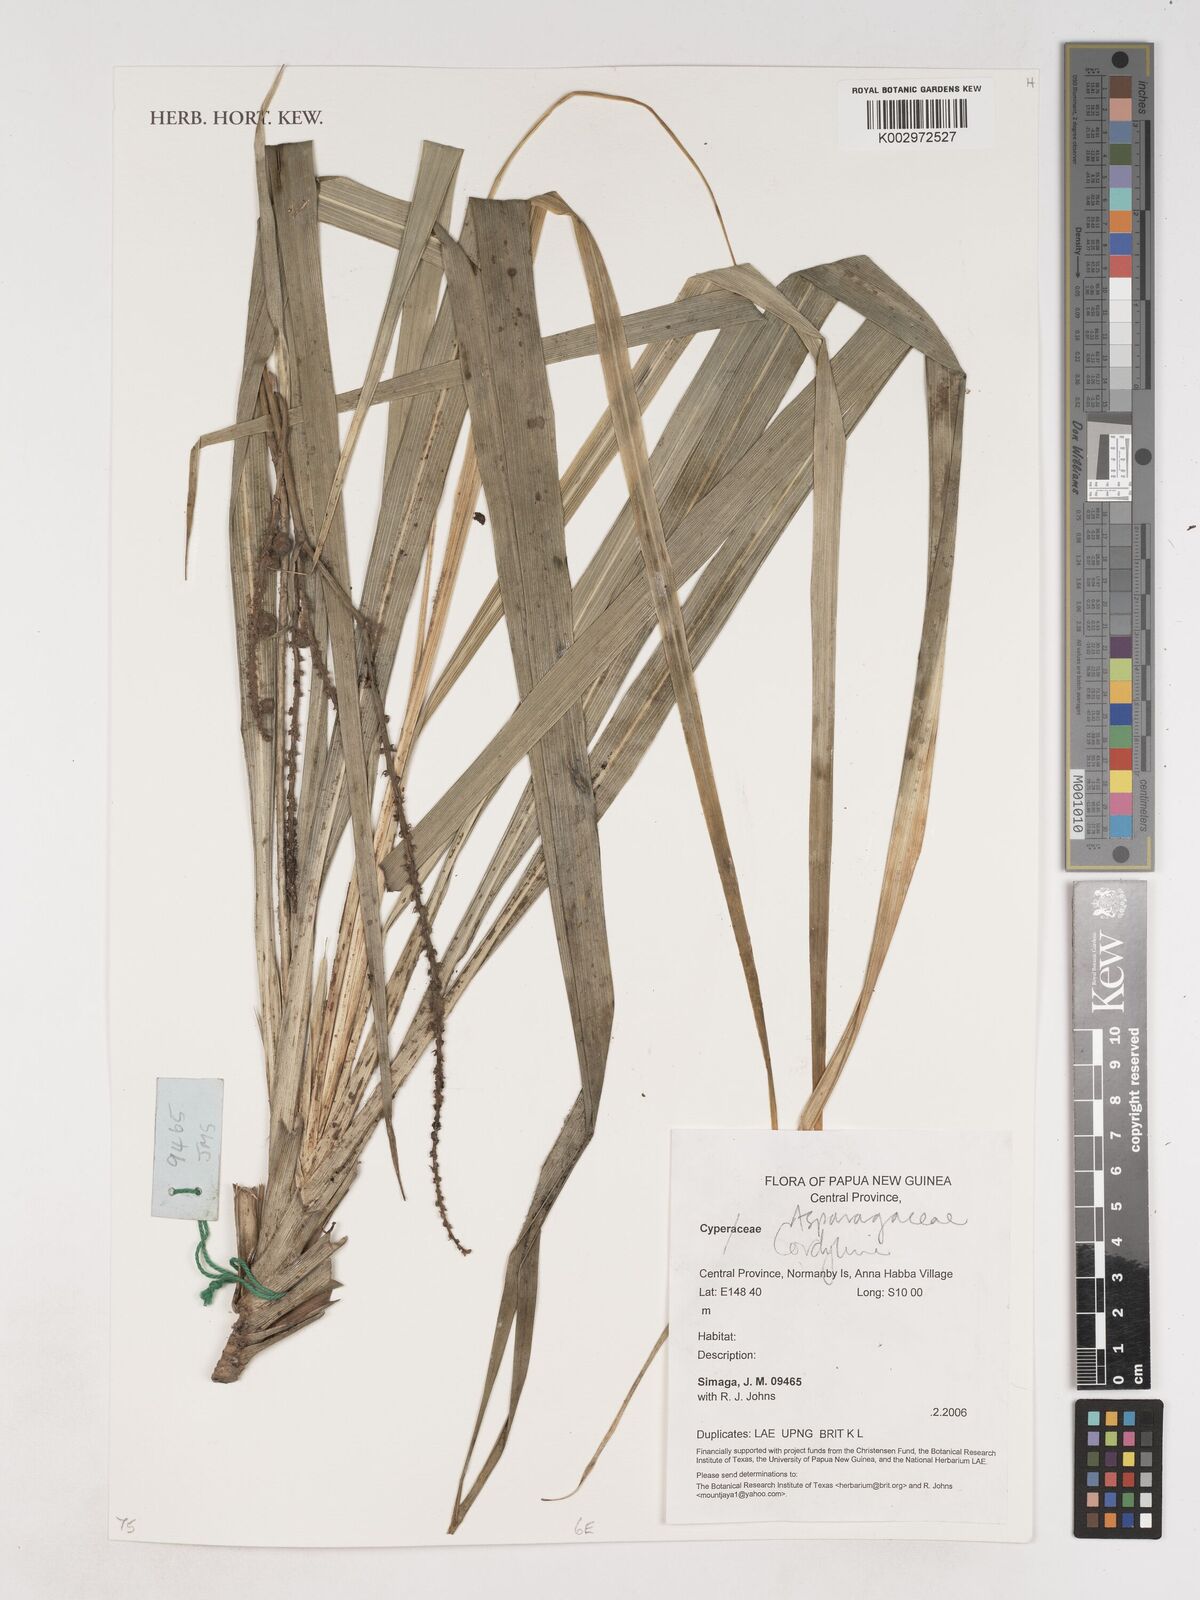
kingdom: Plantae
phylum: Tracheophyta
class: Liliopsida
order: Asparagales
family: Asparagaceae
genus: Cordyline
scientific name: Cordyline
